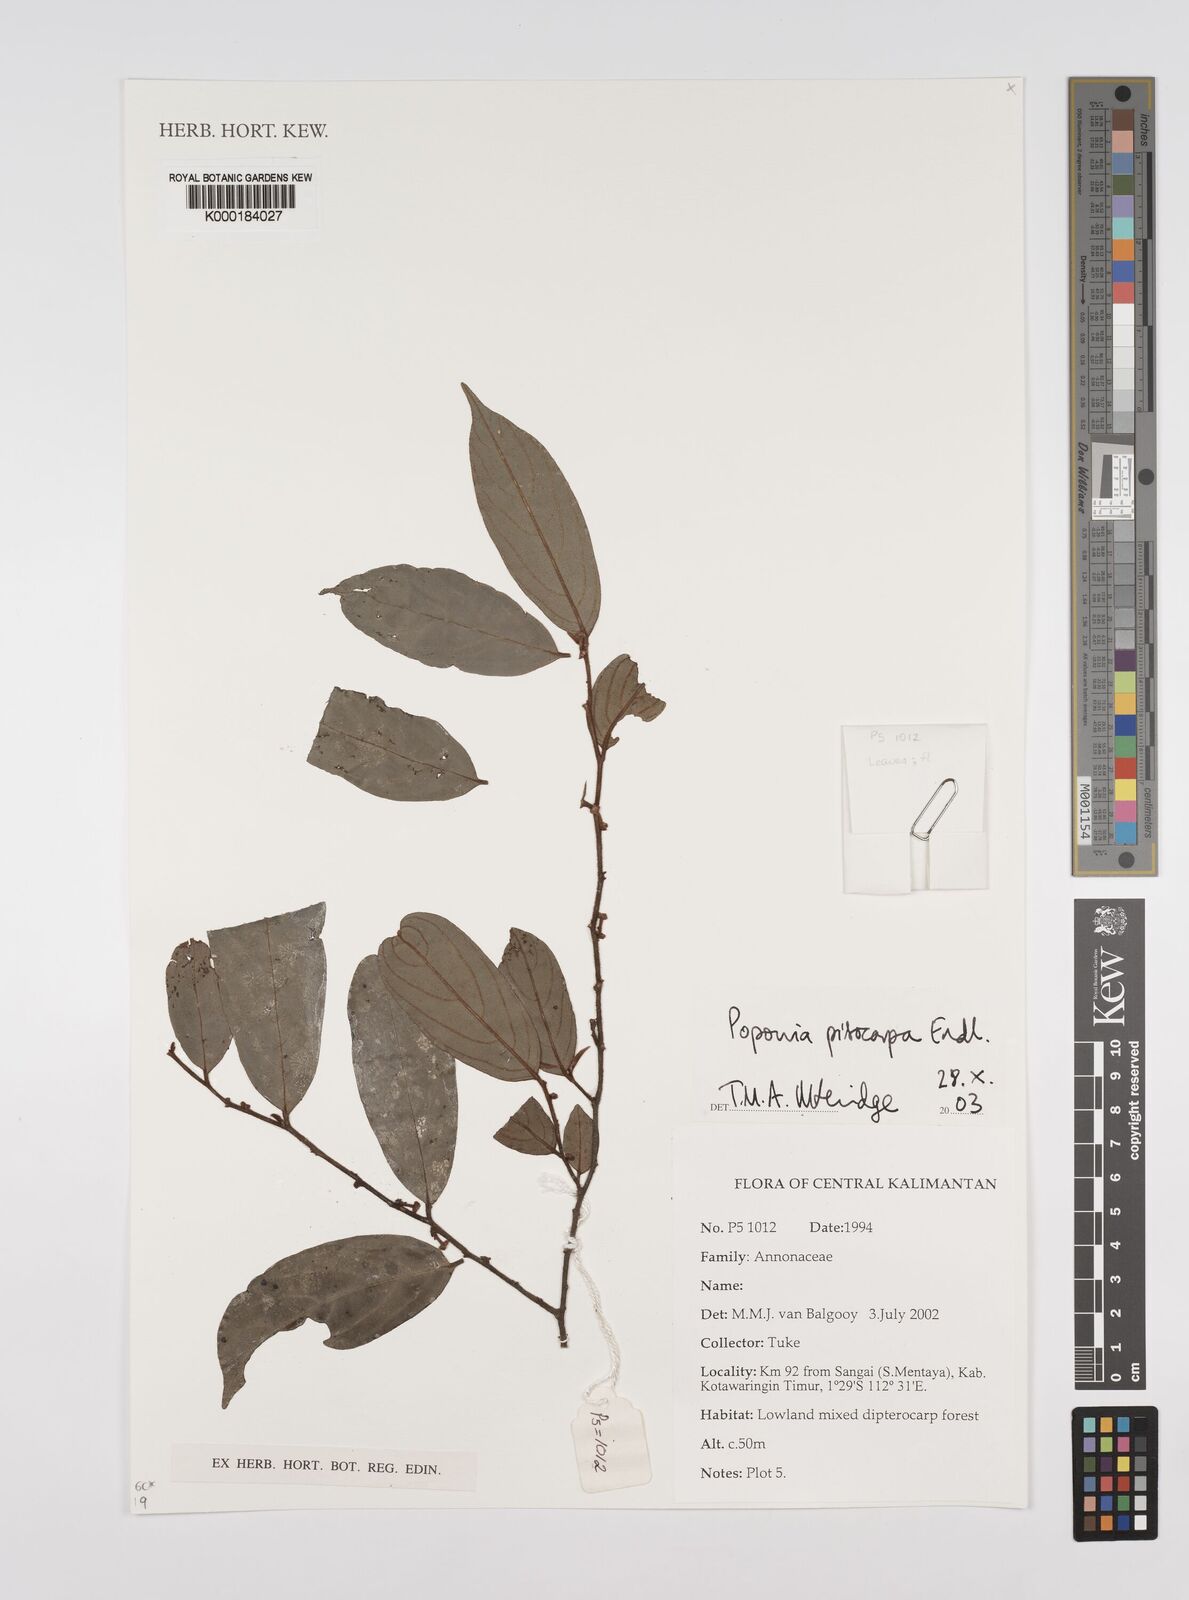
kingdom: Plantae
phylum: Tracheophyta
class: Magnoliopsida
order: Magnoliales
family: Annonaceae
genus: Popowia
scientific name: Popowia
